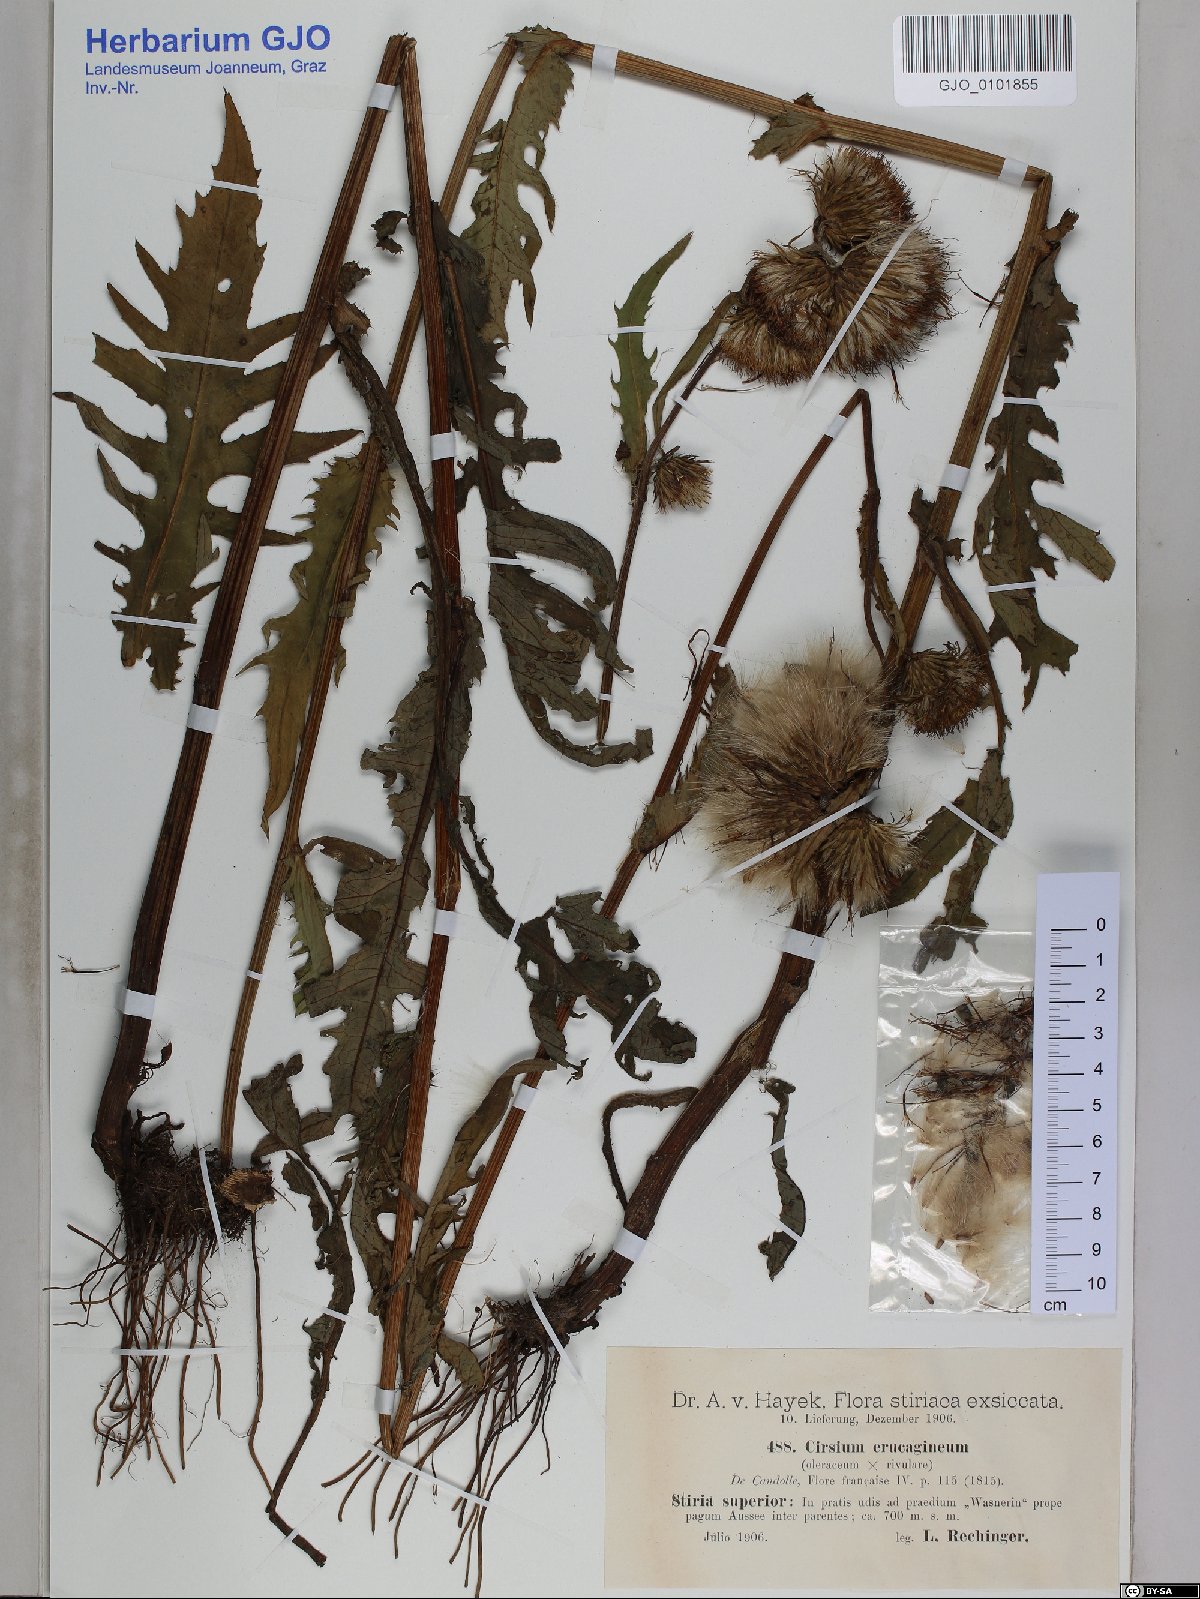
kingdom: Plantae
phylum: Tracheophyta
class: Magnoliopsida
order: Asterales
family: Asteraceae
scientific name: Asteraceae
